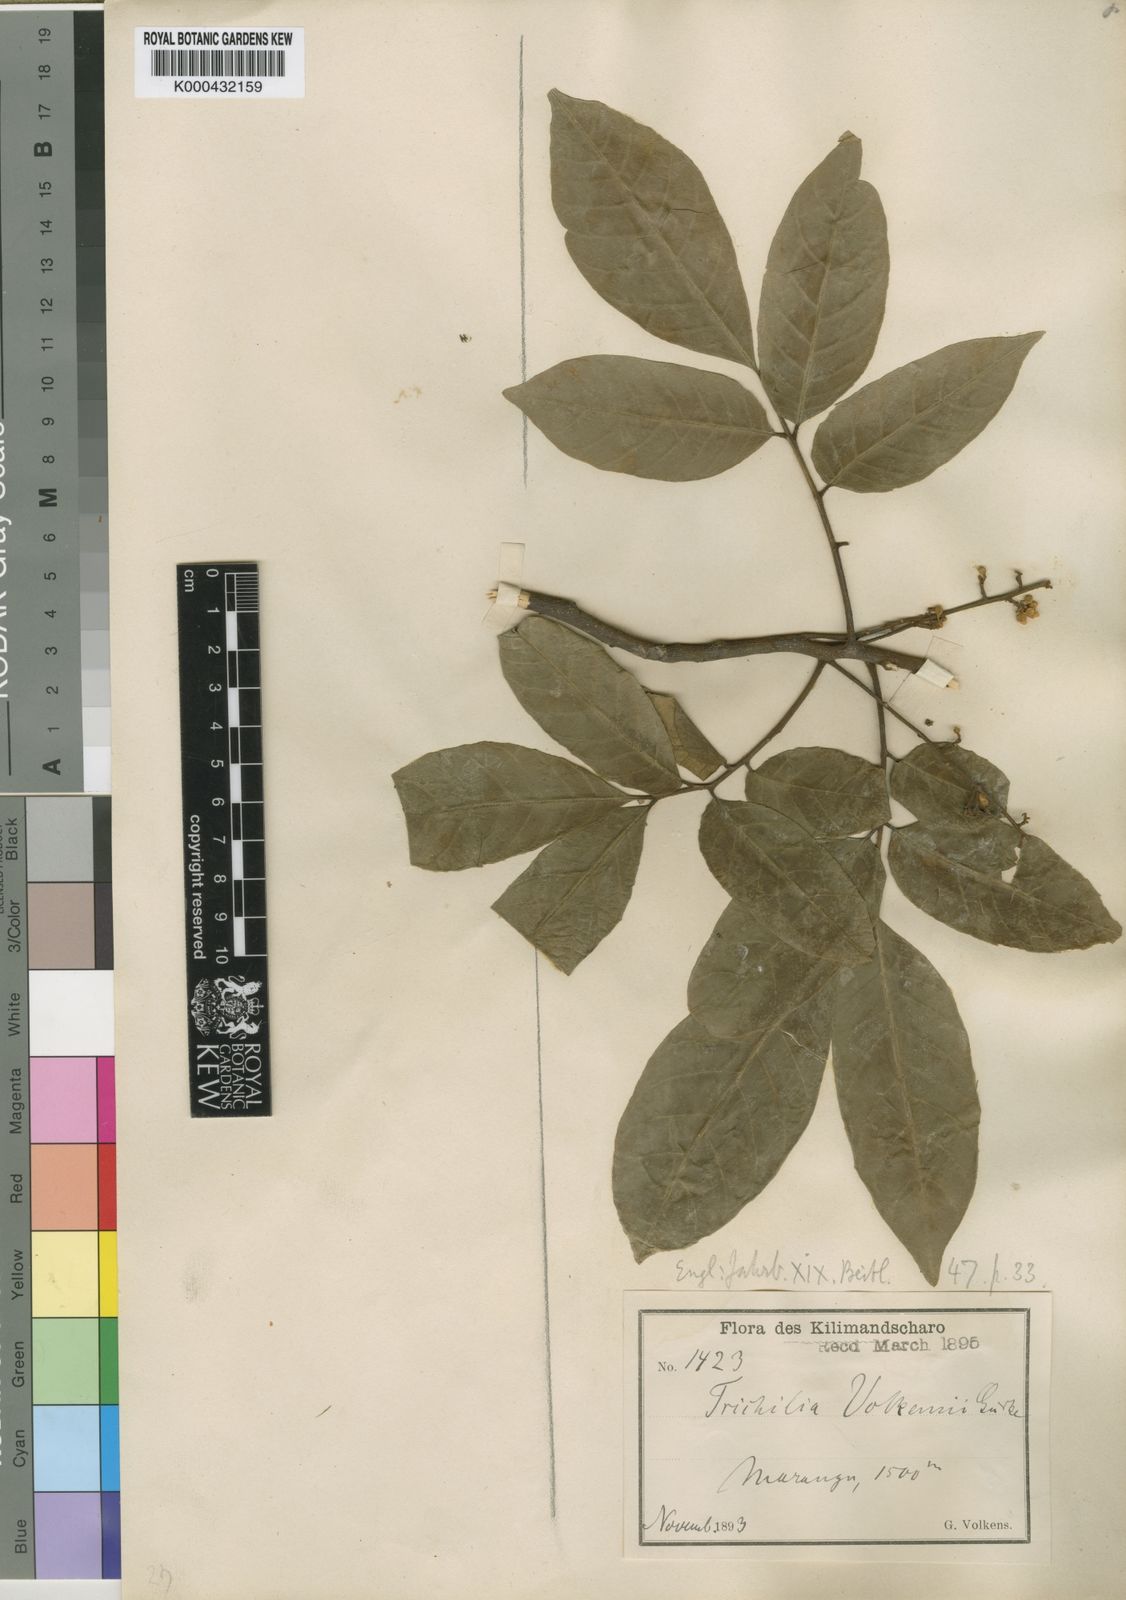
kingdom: Plantae
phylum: Tracheophyta
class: Magnoliopsida
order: Sapindales
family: Meliaceae
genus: Lepidotrichilia
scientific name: Lepidotrichilia
